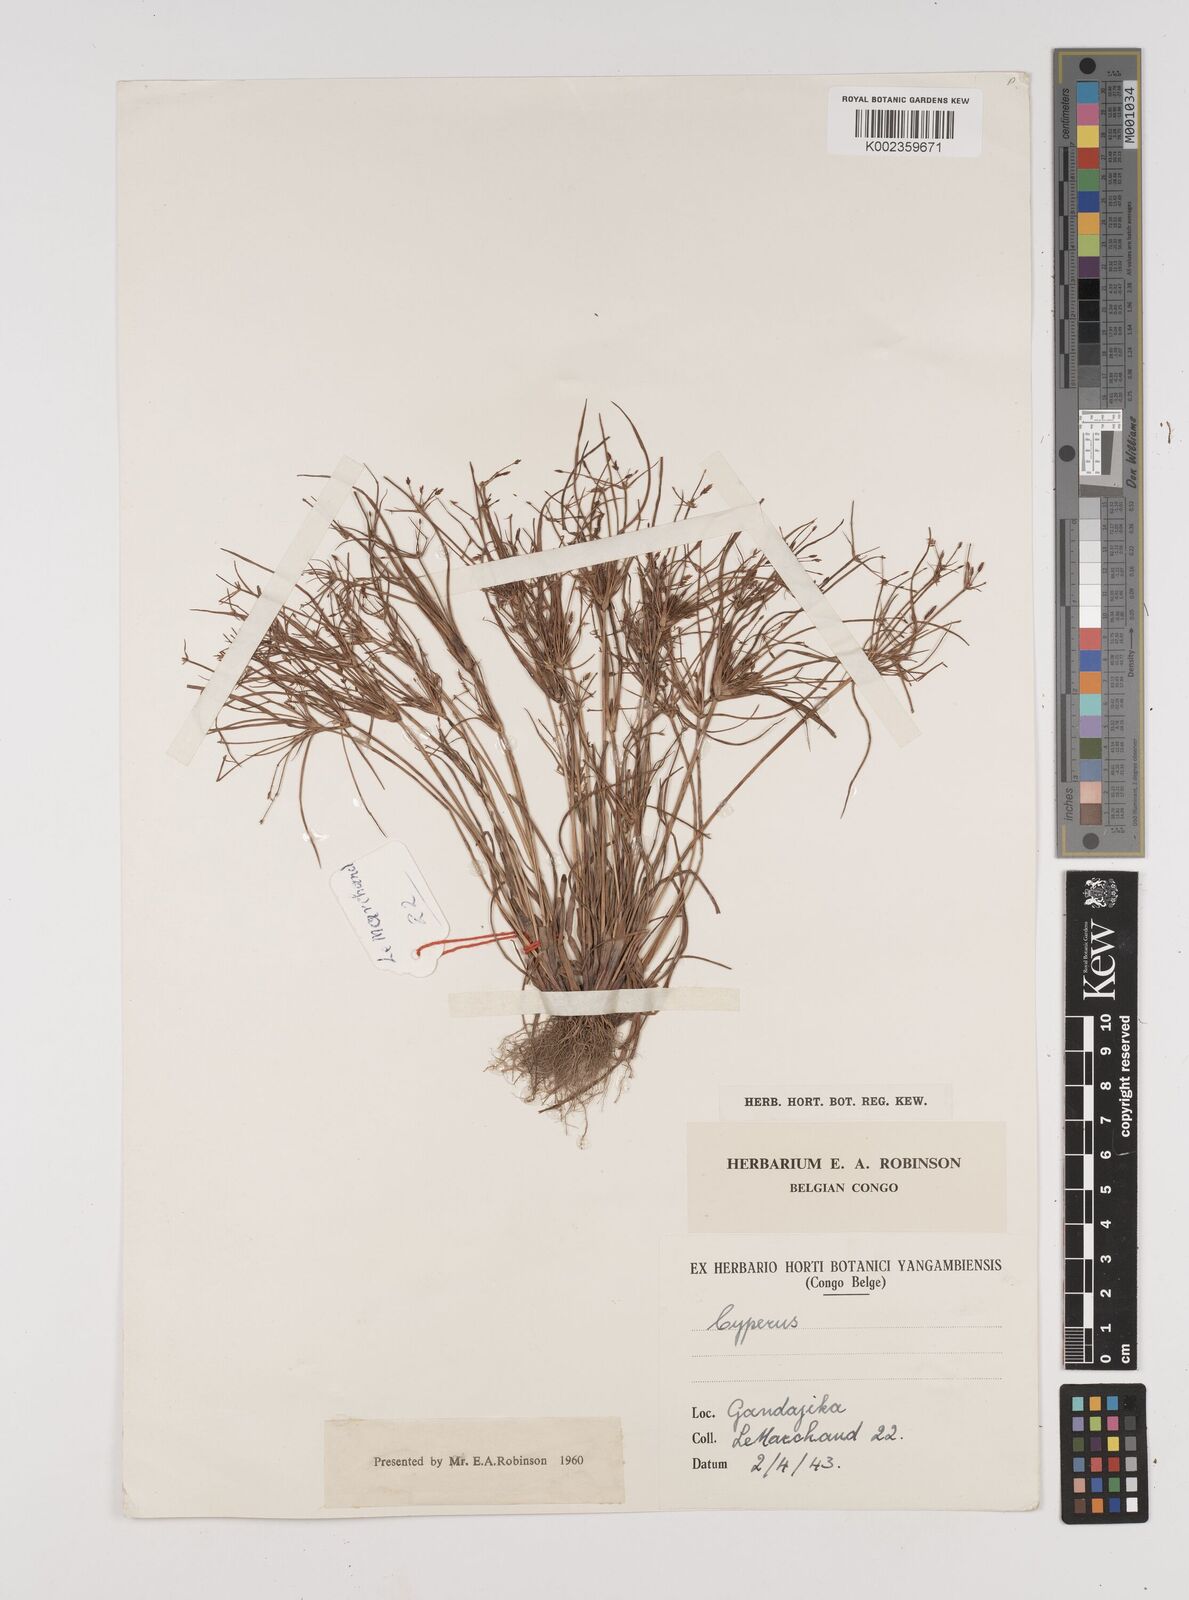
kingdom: Plantae
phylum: Tracheophyta
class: Liliopsida
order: Poales
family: Cyperaceae
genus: Cyperus
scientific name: Cyperus
